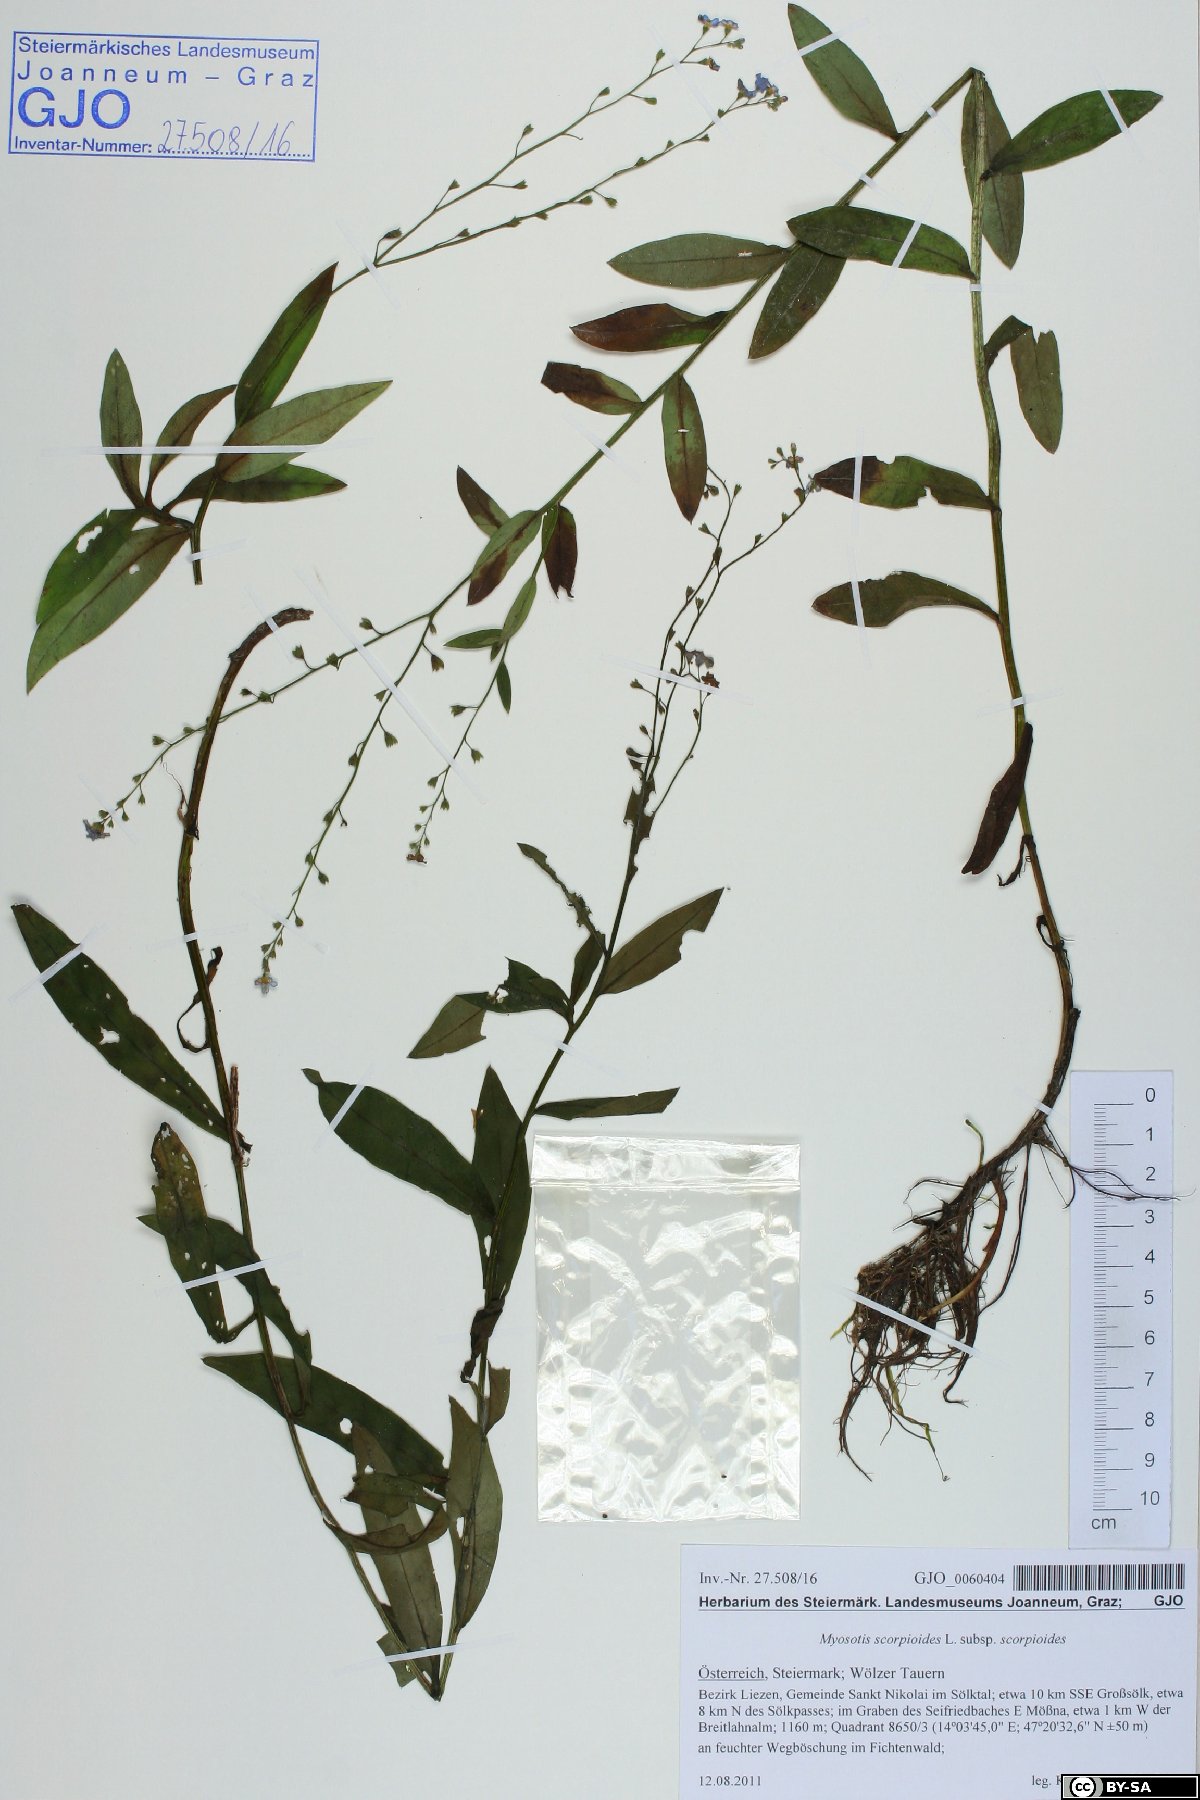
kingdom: Plantae
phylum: Tracheophyta
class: Magnoliopsida
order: Boraginales
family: Boraginaceae
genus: Myosotis
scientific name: Myosotis scorpioides
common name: Water forget-me-not
